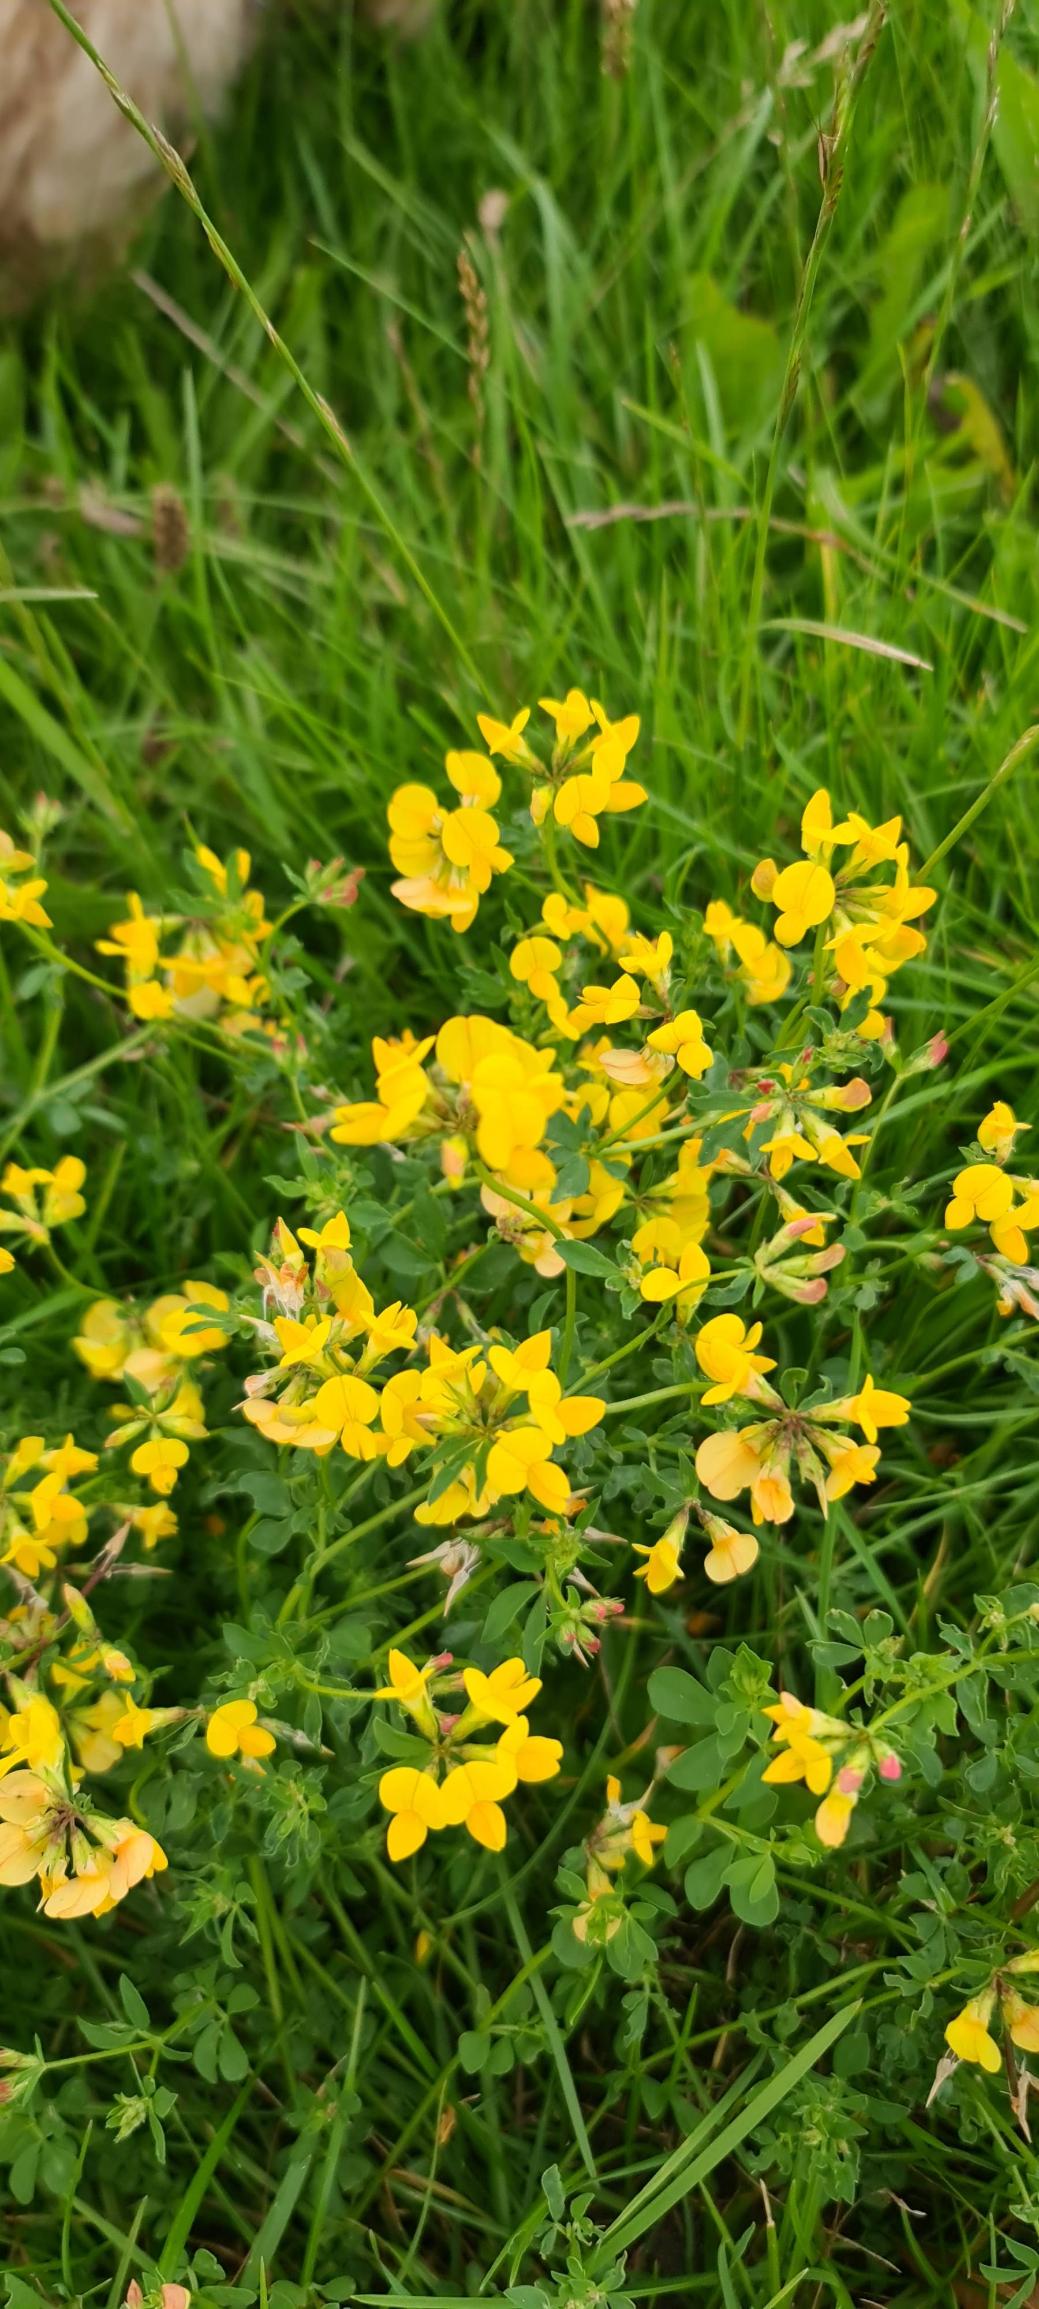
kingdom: Plantae
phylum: Tracheophyta
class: Magnoliopsida
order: Fabales
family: Fabaceae
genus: Lotus
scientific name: Lotus corniculatus
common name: Almindelig kællingetand
